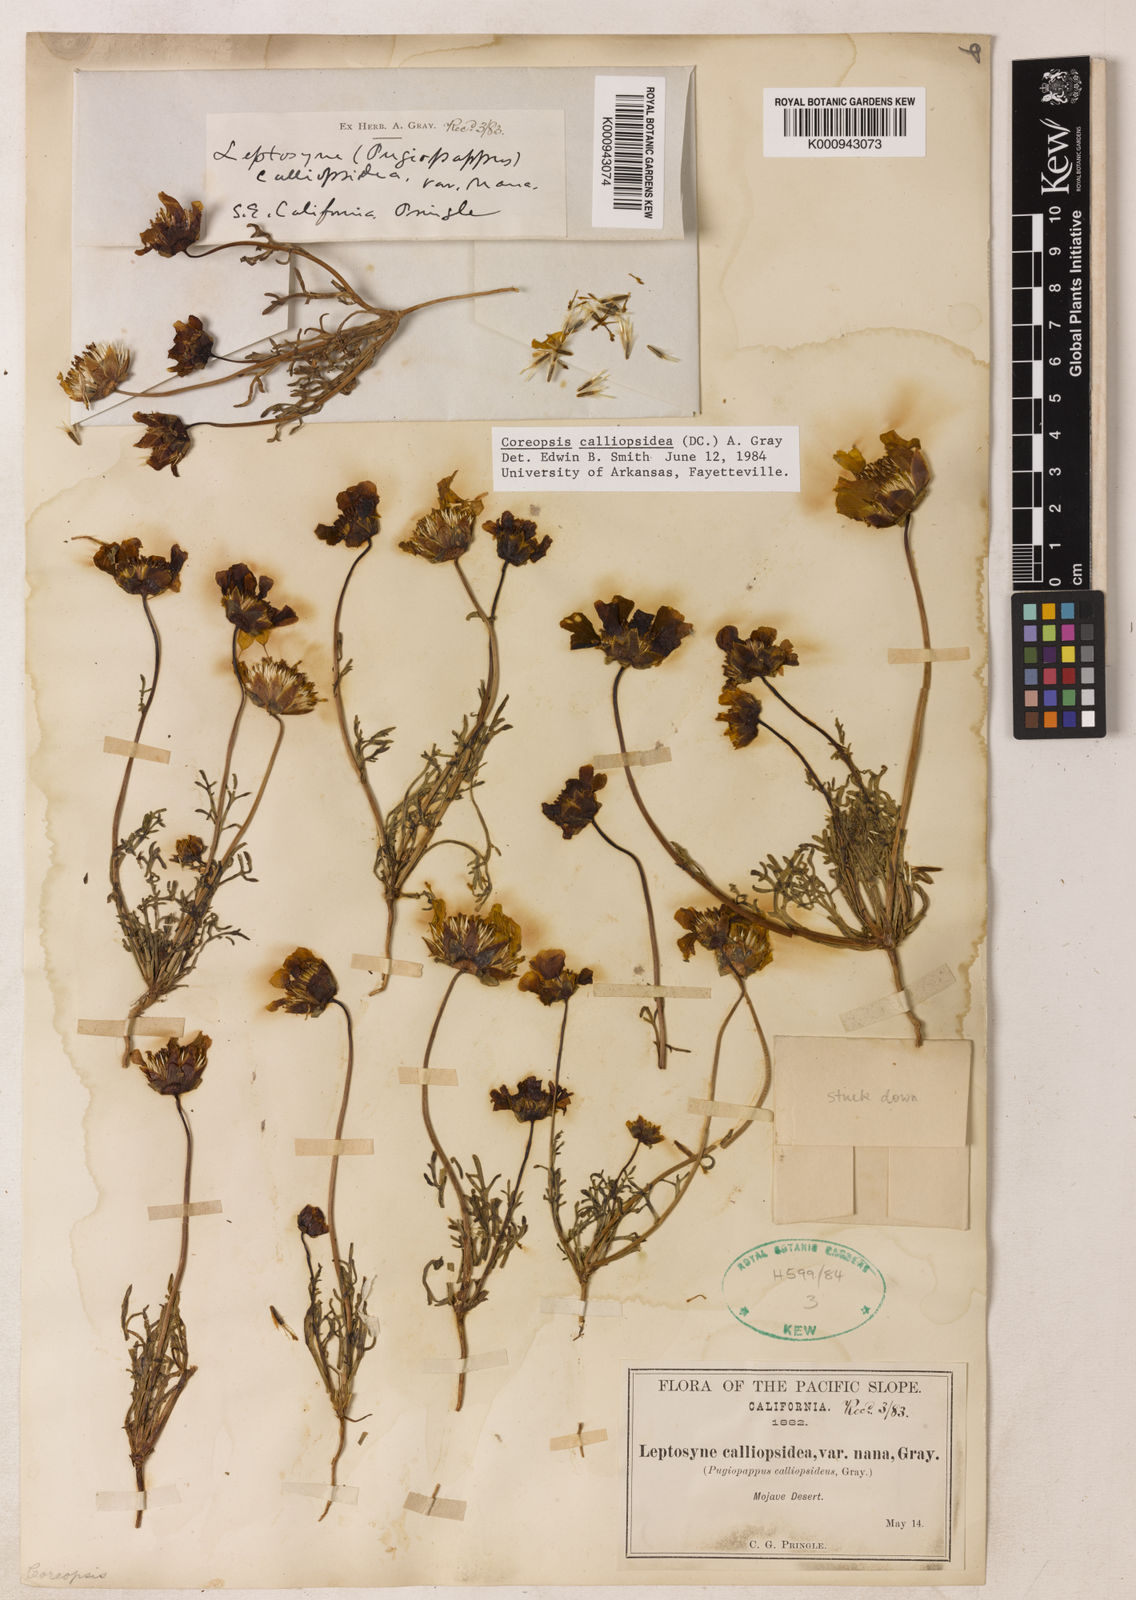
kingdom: Plantae
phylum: Tracheophyta
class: Magnoliopsida
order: Asterales
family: Asteraceae
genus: Coreopsis
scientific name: Coreopsis calliopsidea
